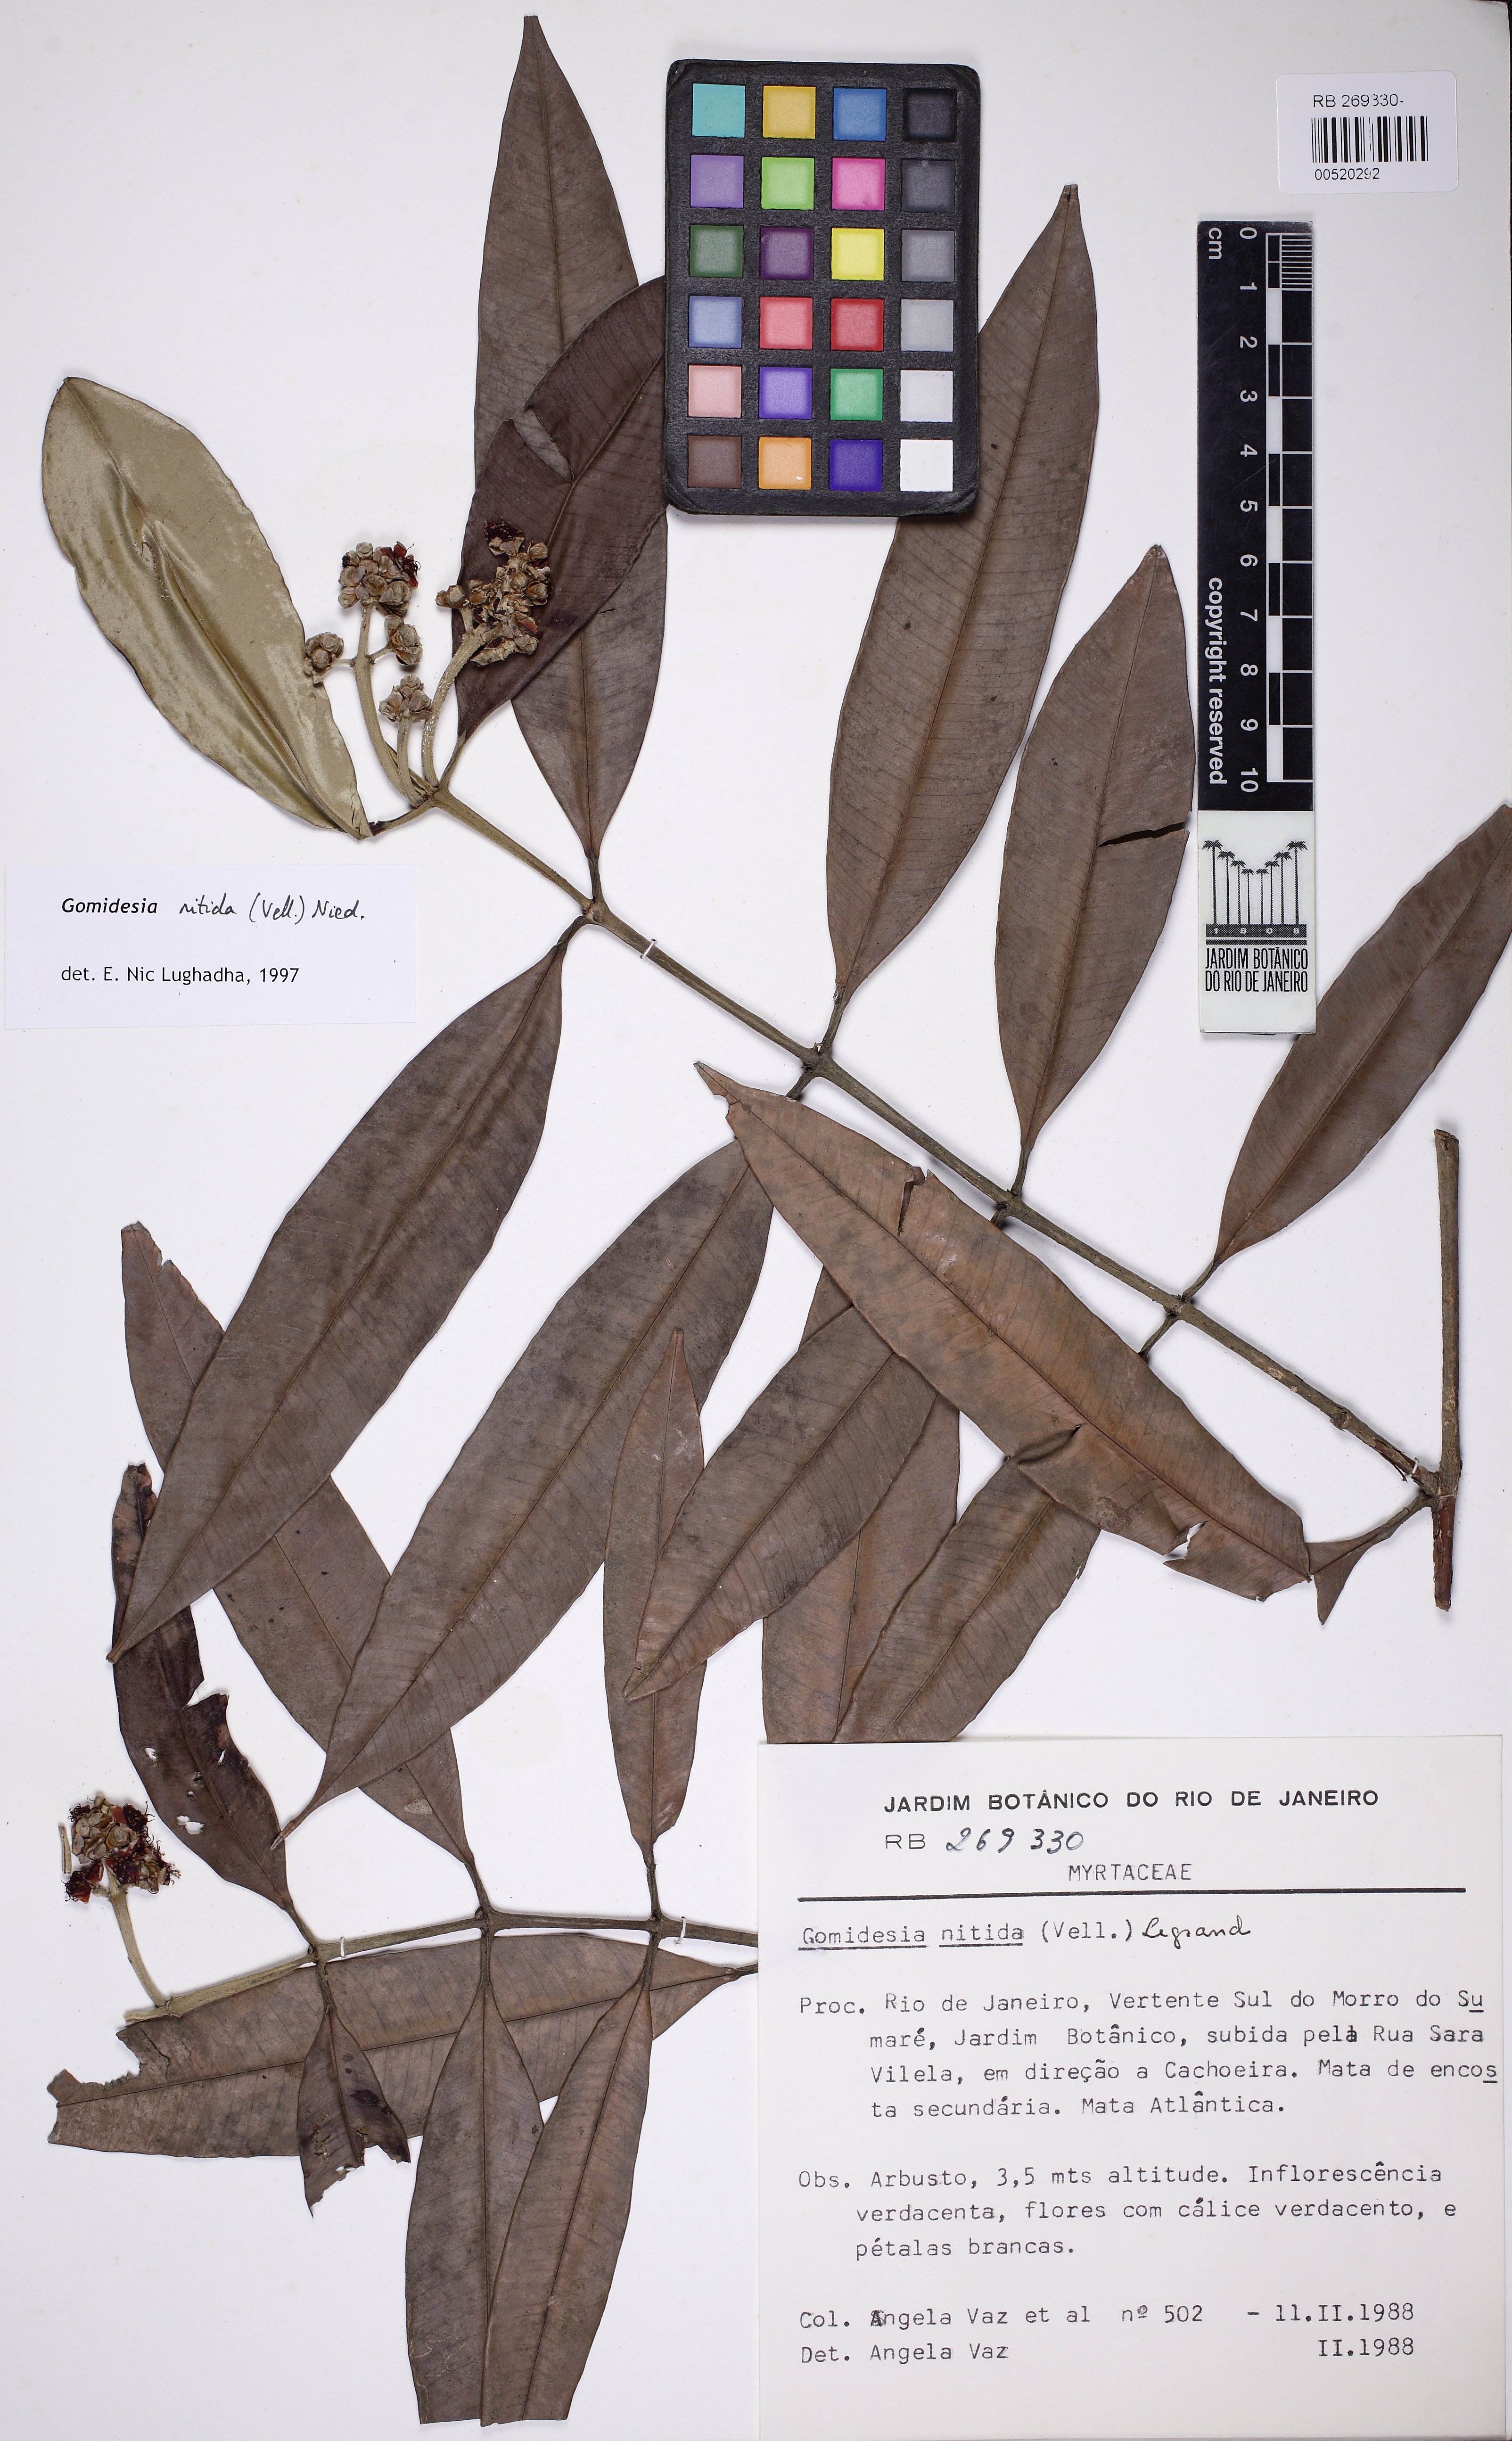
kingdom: Plantae
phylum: Tracheophyta
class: Magnoliopsida
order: Myrtales
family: Myrtaceae
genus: Myrcia
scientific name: Myrcia subsericea
